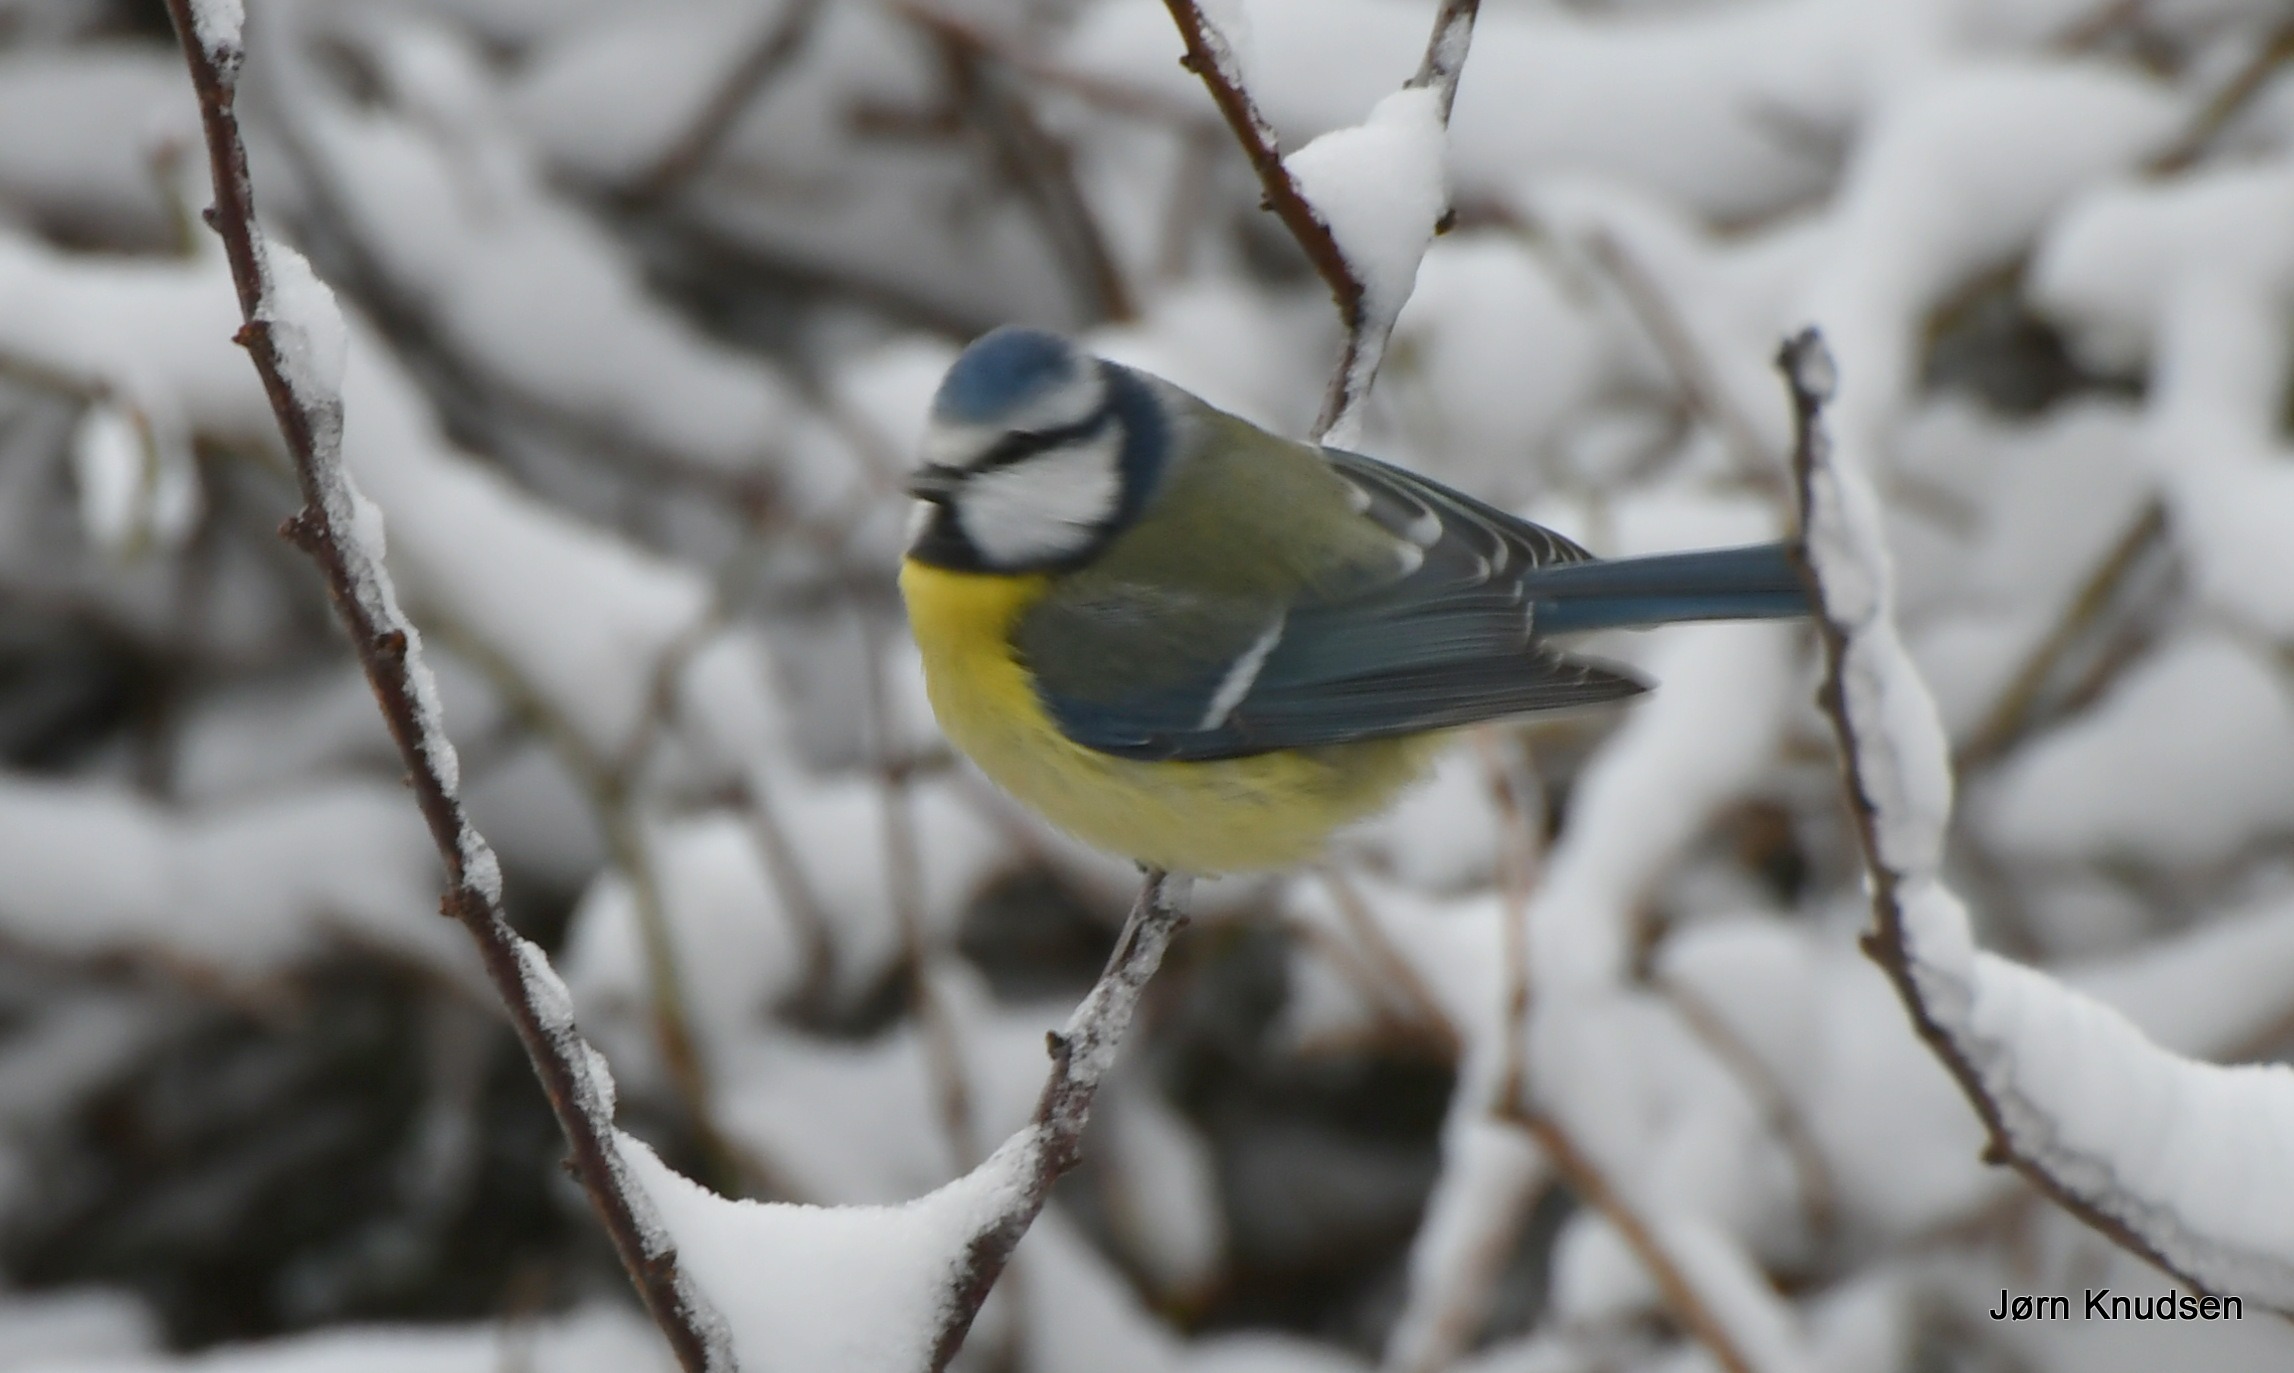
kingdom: Animalia
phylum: Chordata
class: Aves
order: Passeriformes
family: Paridae
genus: Cyanistes
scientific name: Cyanistes caeruleus
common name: Blåmejse
